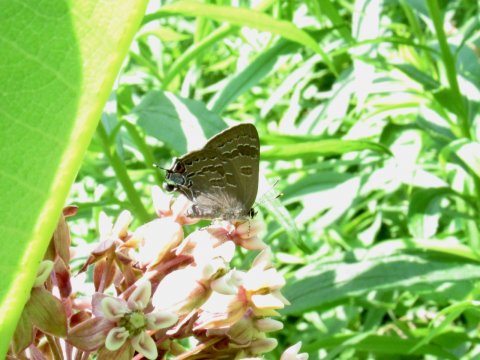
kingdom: Animalia
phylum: Arthropoda
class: Insecta
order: Lepidoptera
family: Lycaenidae
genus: Strymon
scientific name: Strymon caryaevorus
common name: Hickory Hairstreak
